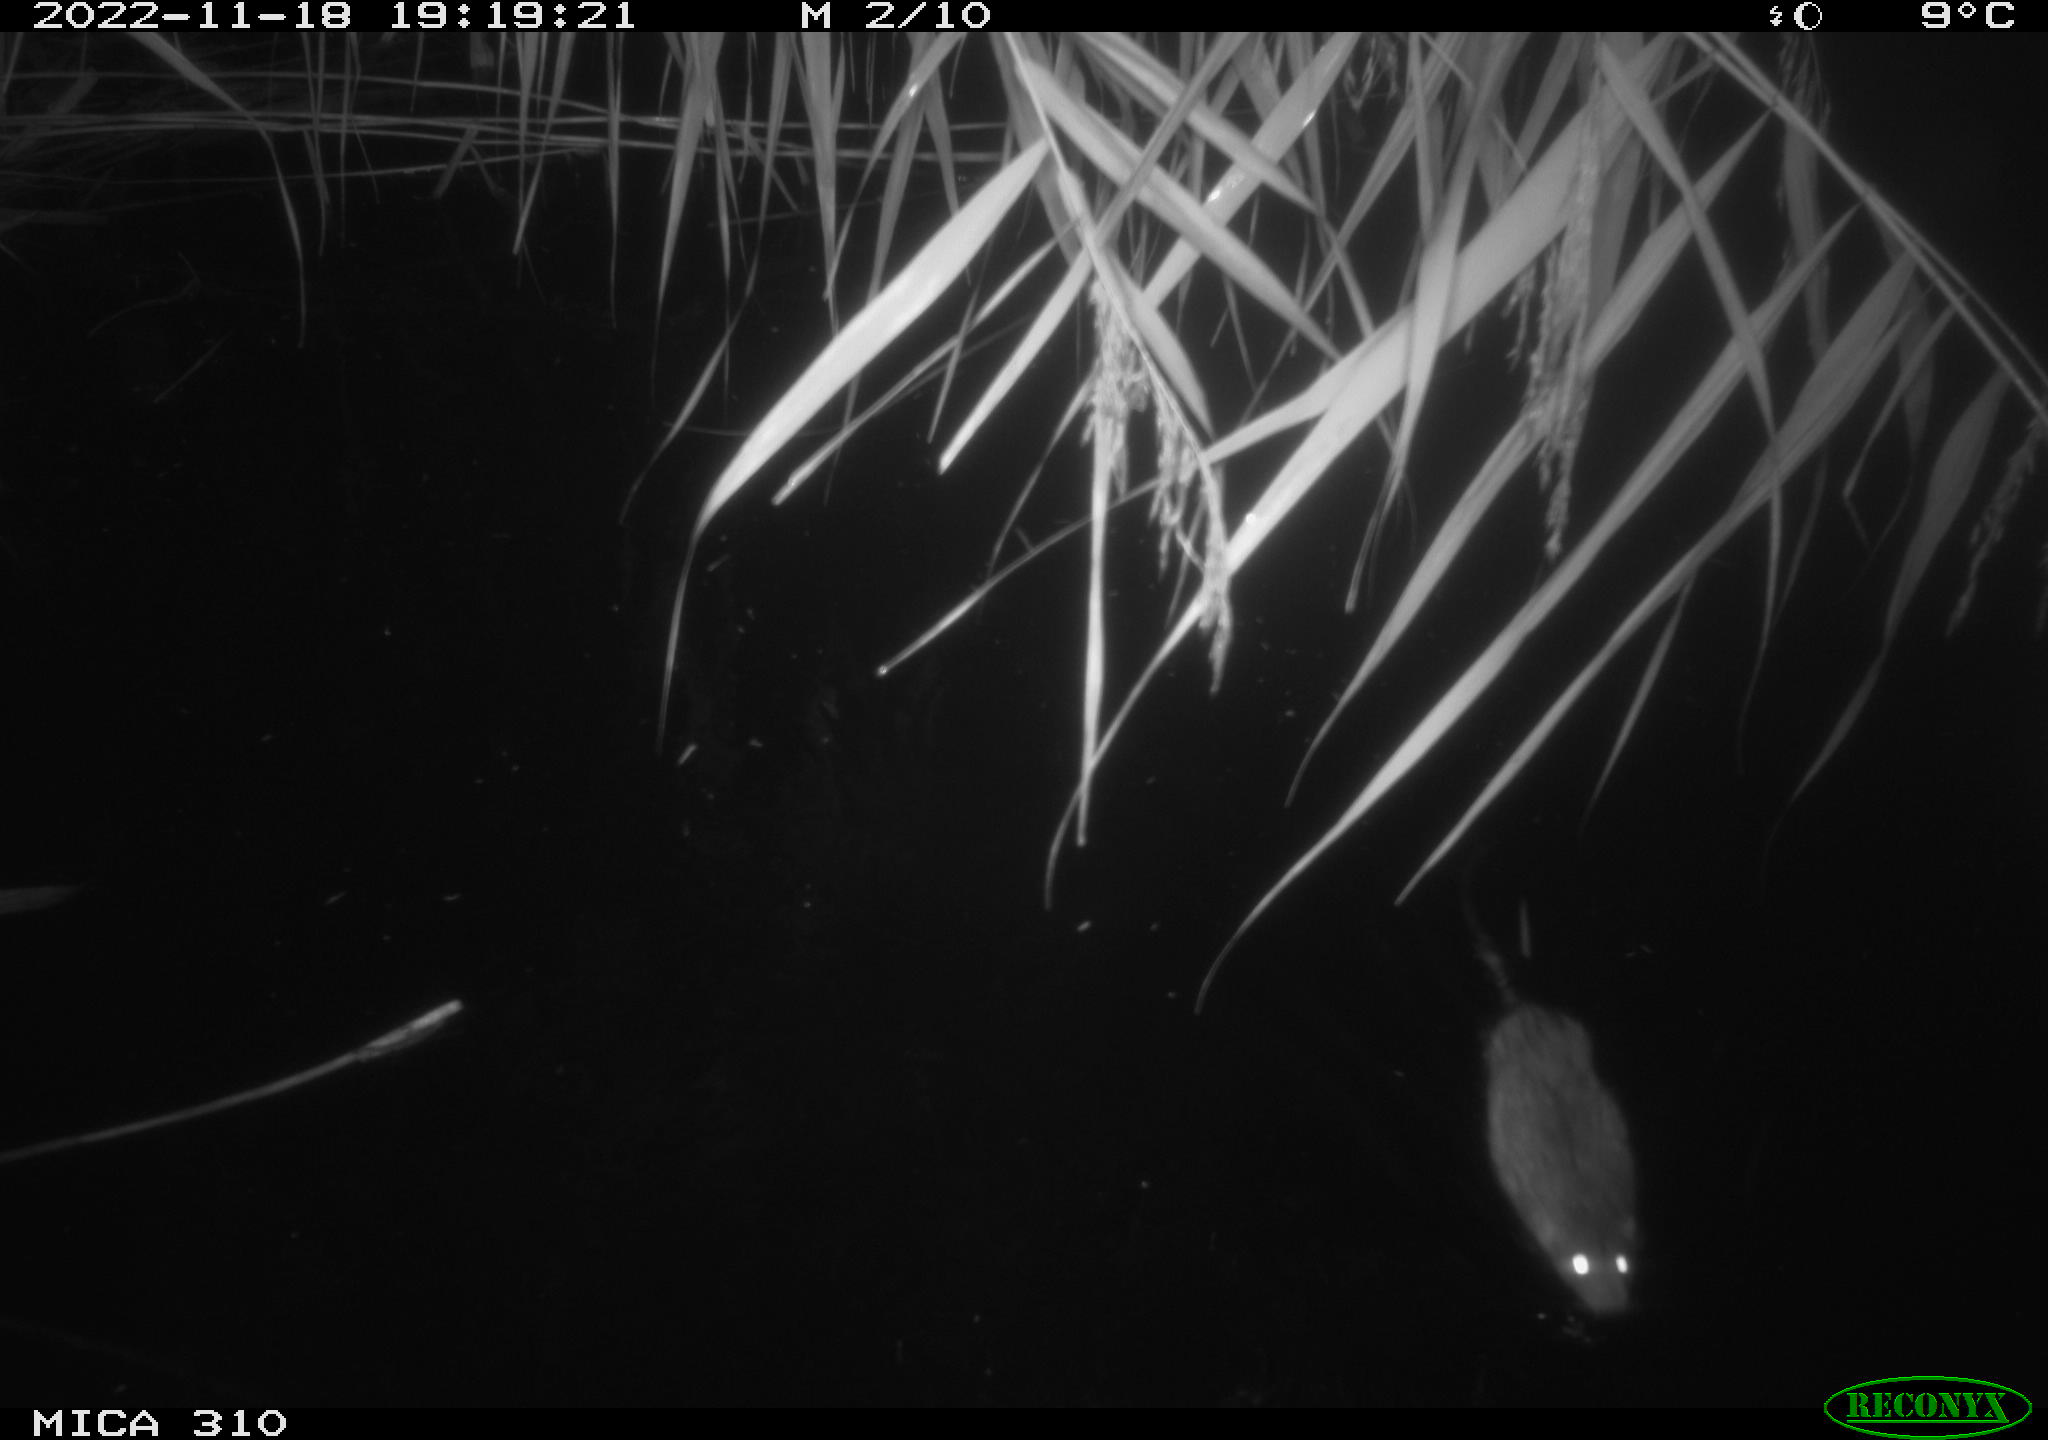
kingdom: Animalia
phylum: Chordata
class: Mammalia
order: Rodentia
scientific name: Rodentia
